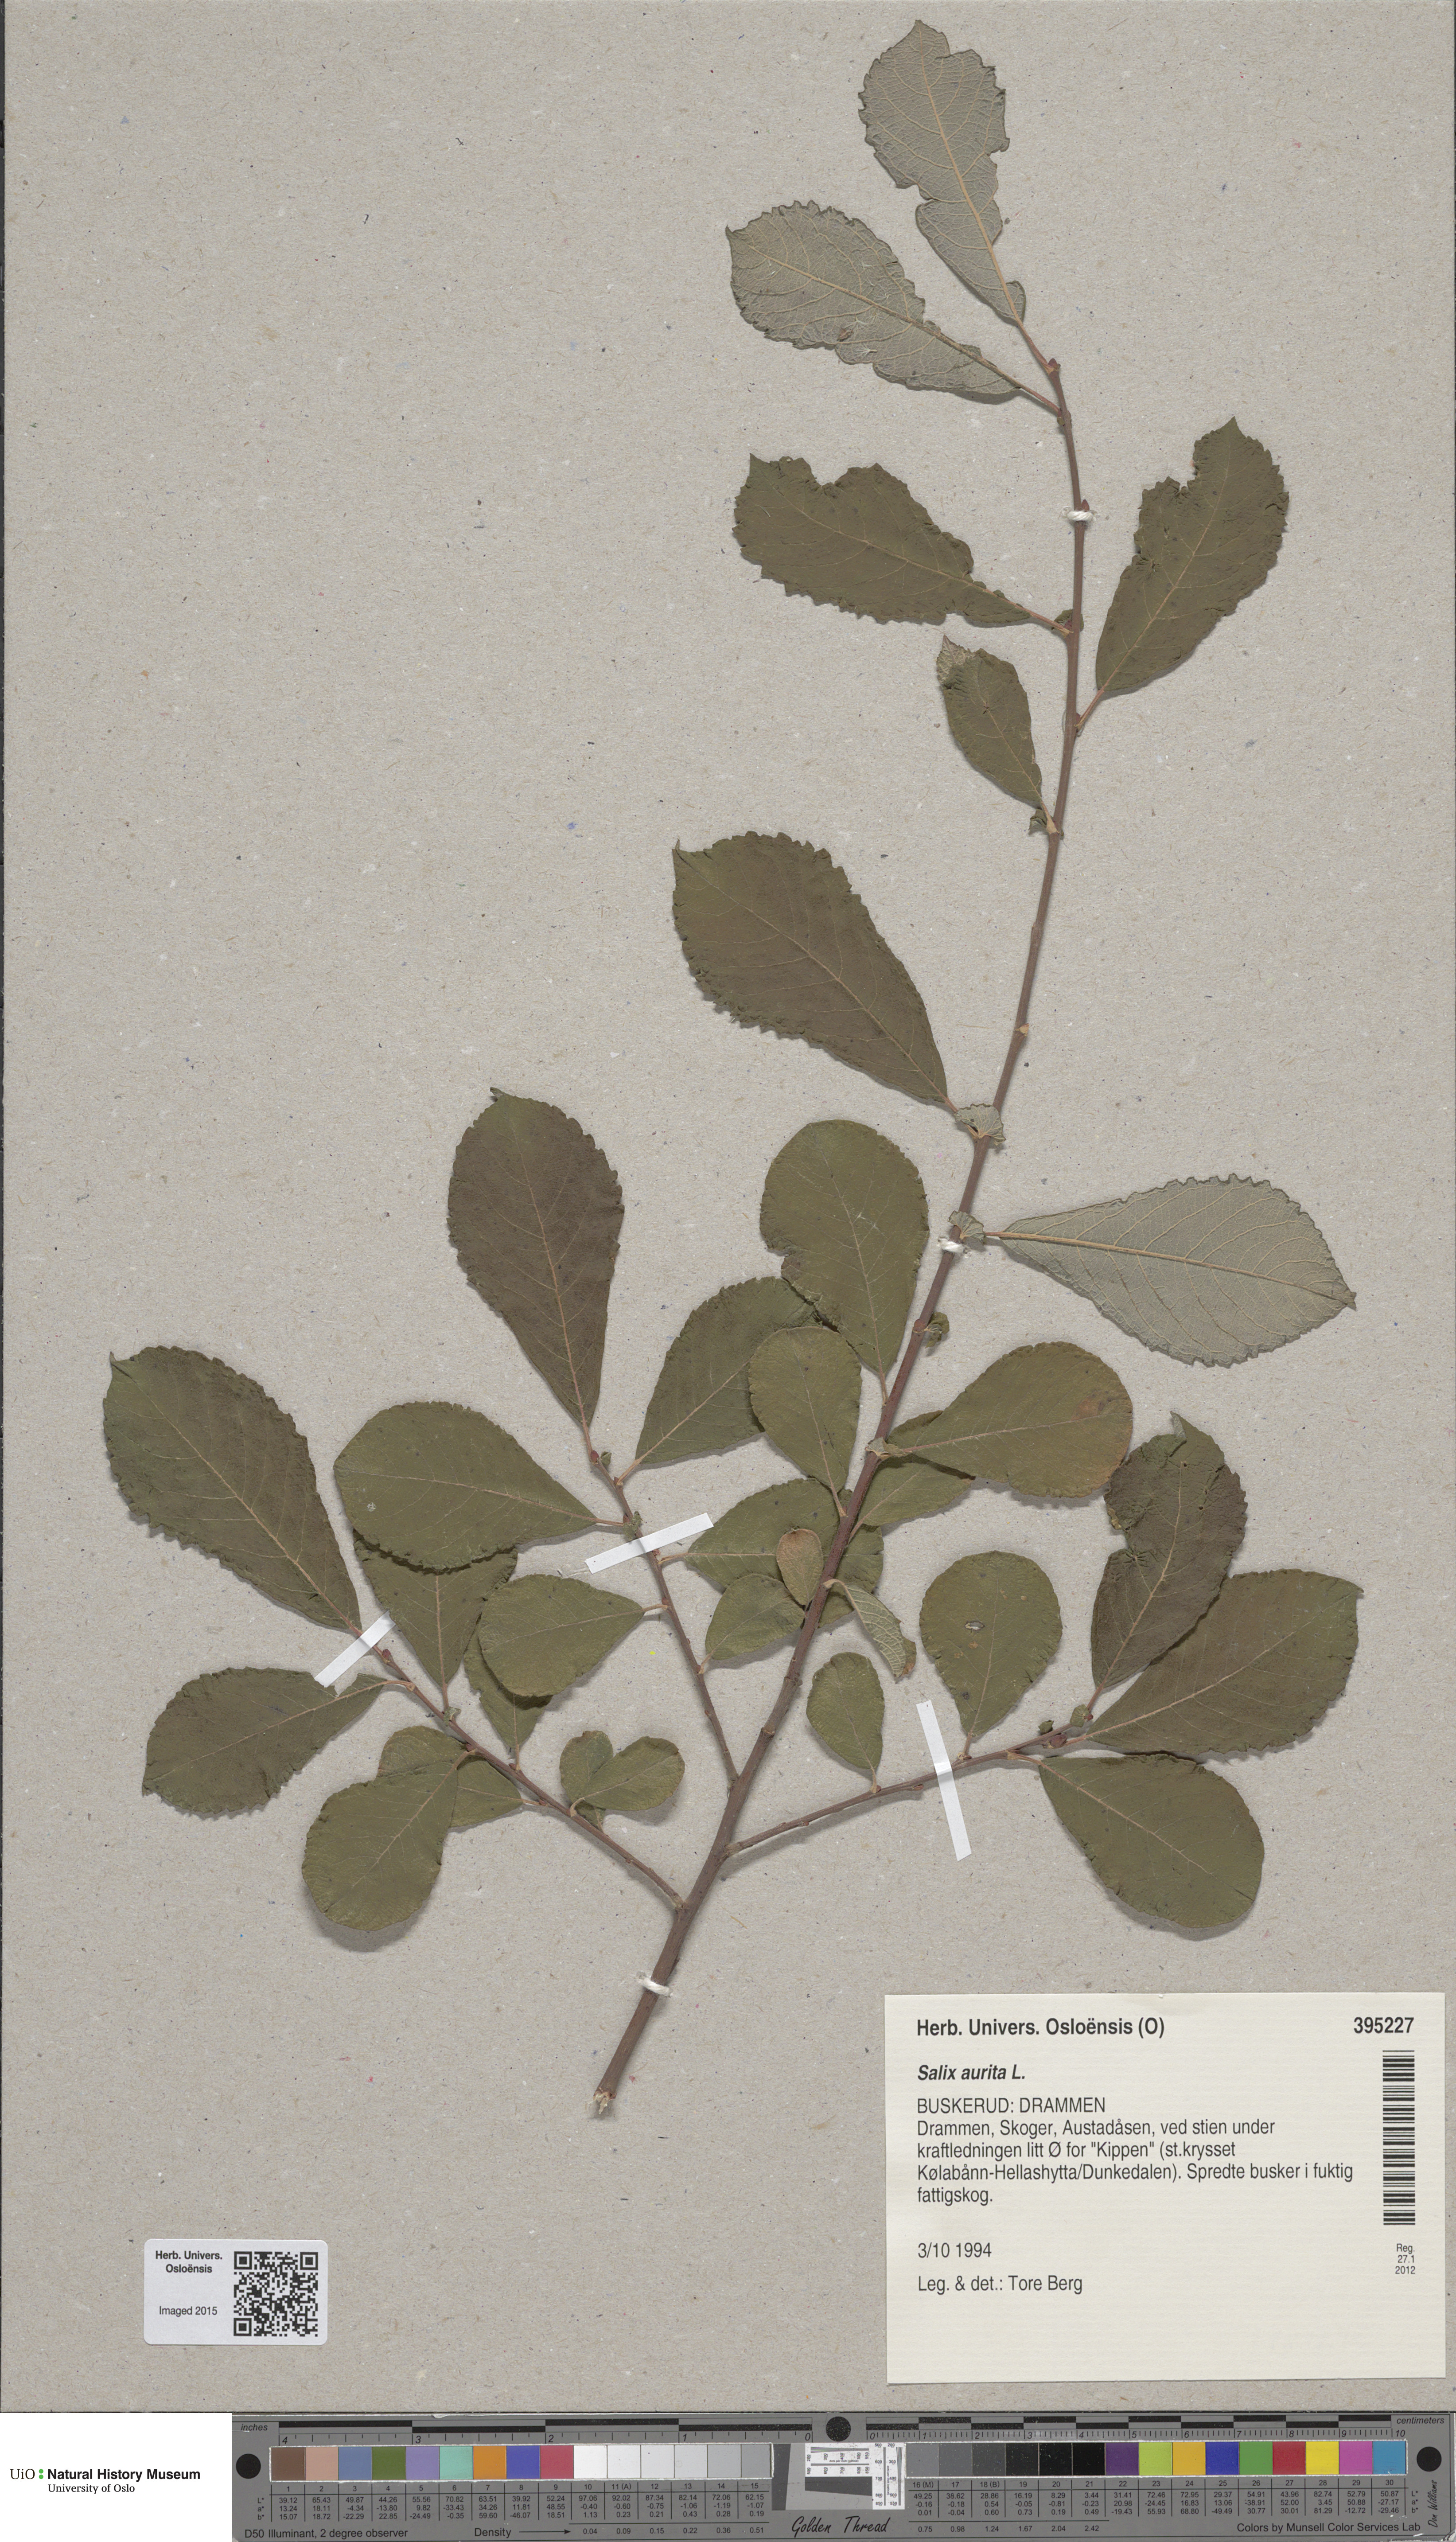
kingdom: Plantae
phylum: Tracheophyta
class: Magnoliopsida
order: Malpighiales
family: Salicaceae
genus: Salix
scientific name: Salix aurita
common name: Eared willow
